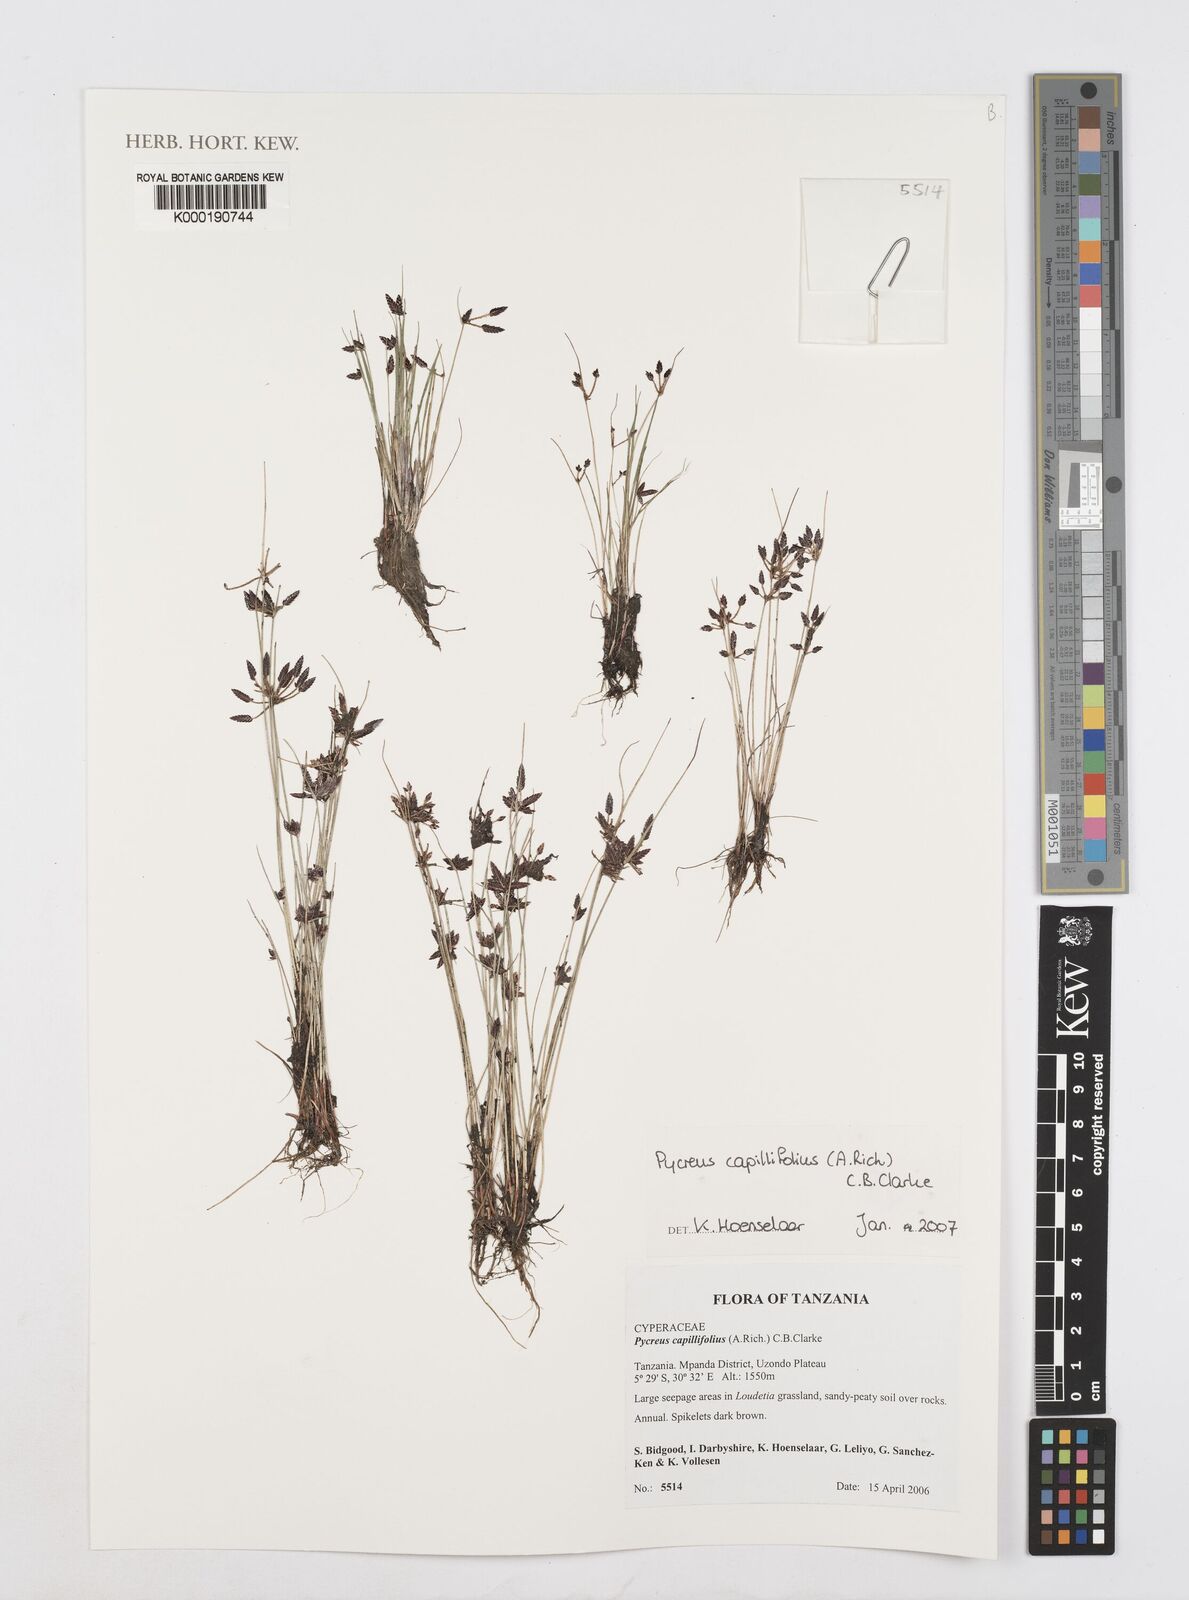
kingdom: Plantae
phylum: Tracheophyta
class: Liliopsida
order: Poales
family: Cyperaceae
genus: Cyperus
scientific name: Cyperus capillifolius
